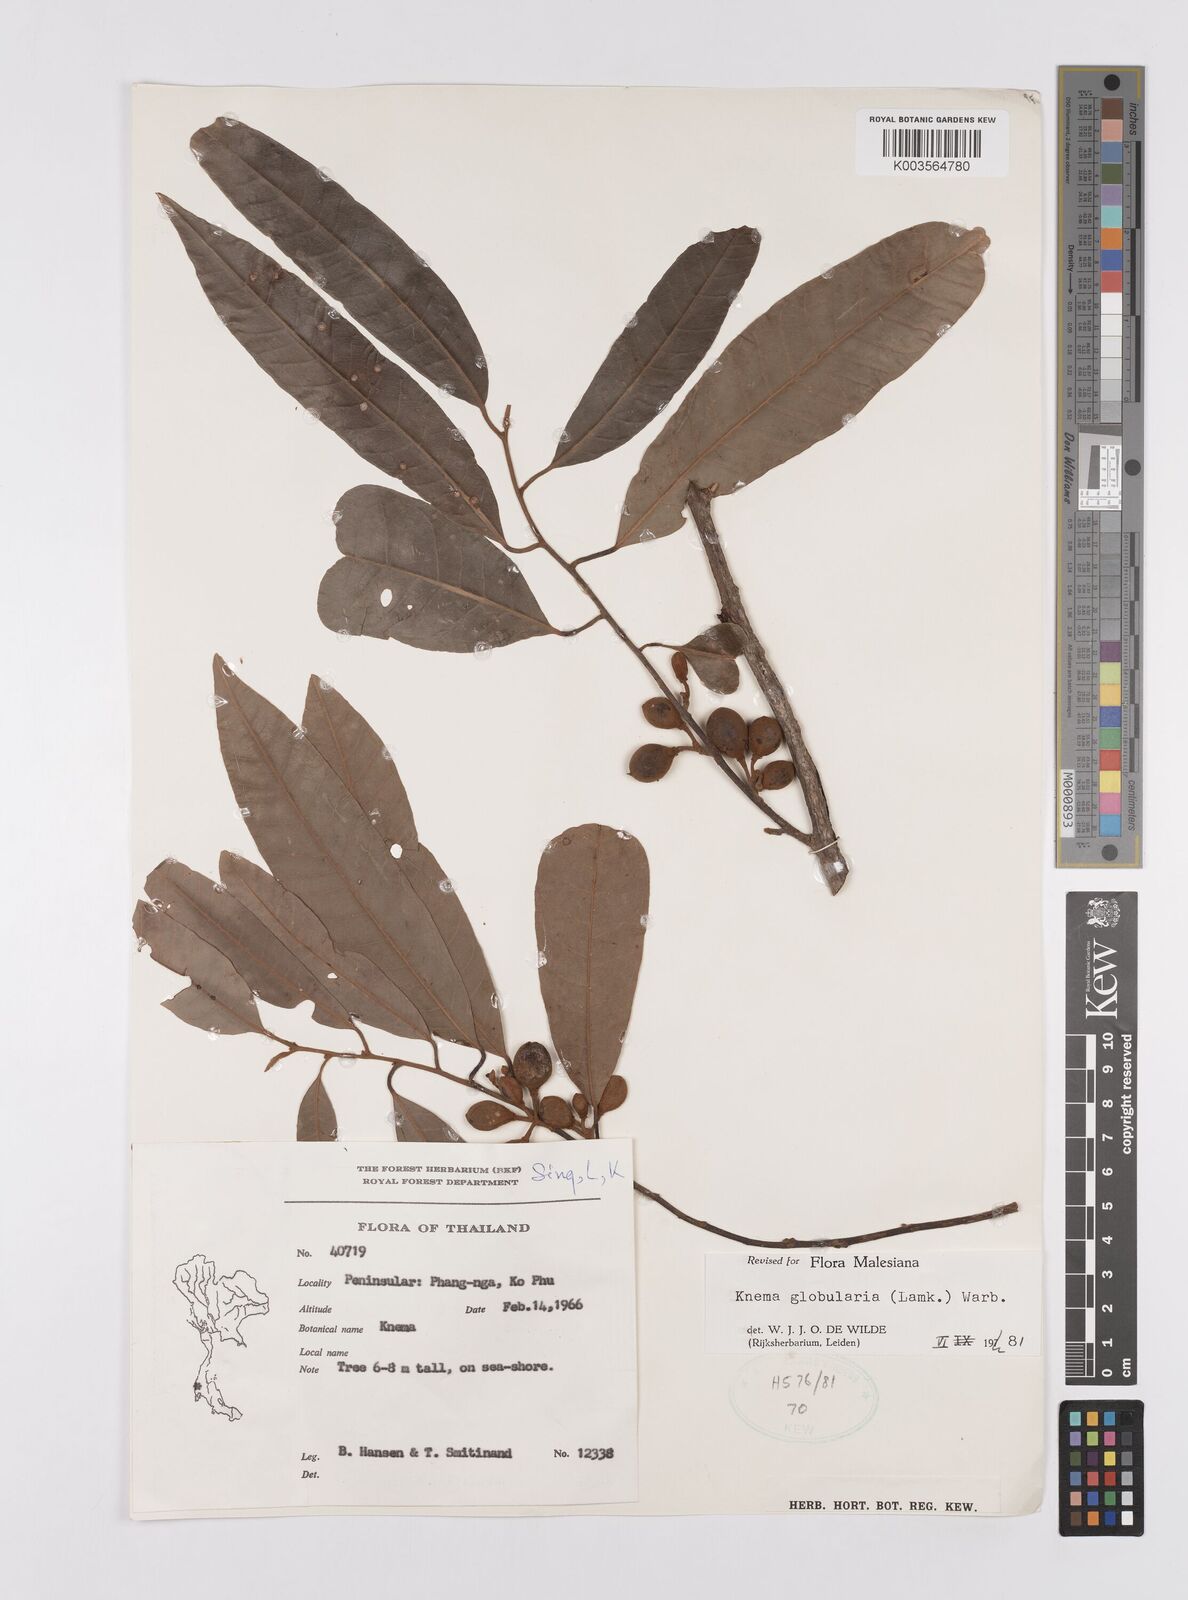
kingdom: Plantae
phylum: Tracheophyta
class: Magnoliopsida
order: Magnoliales
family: Myristicaceae
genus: Knema
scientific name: Knema globularia
